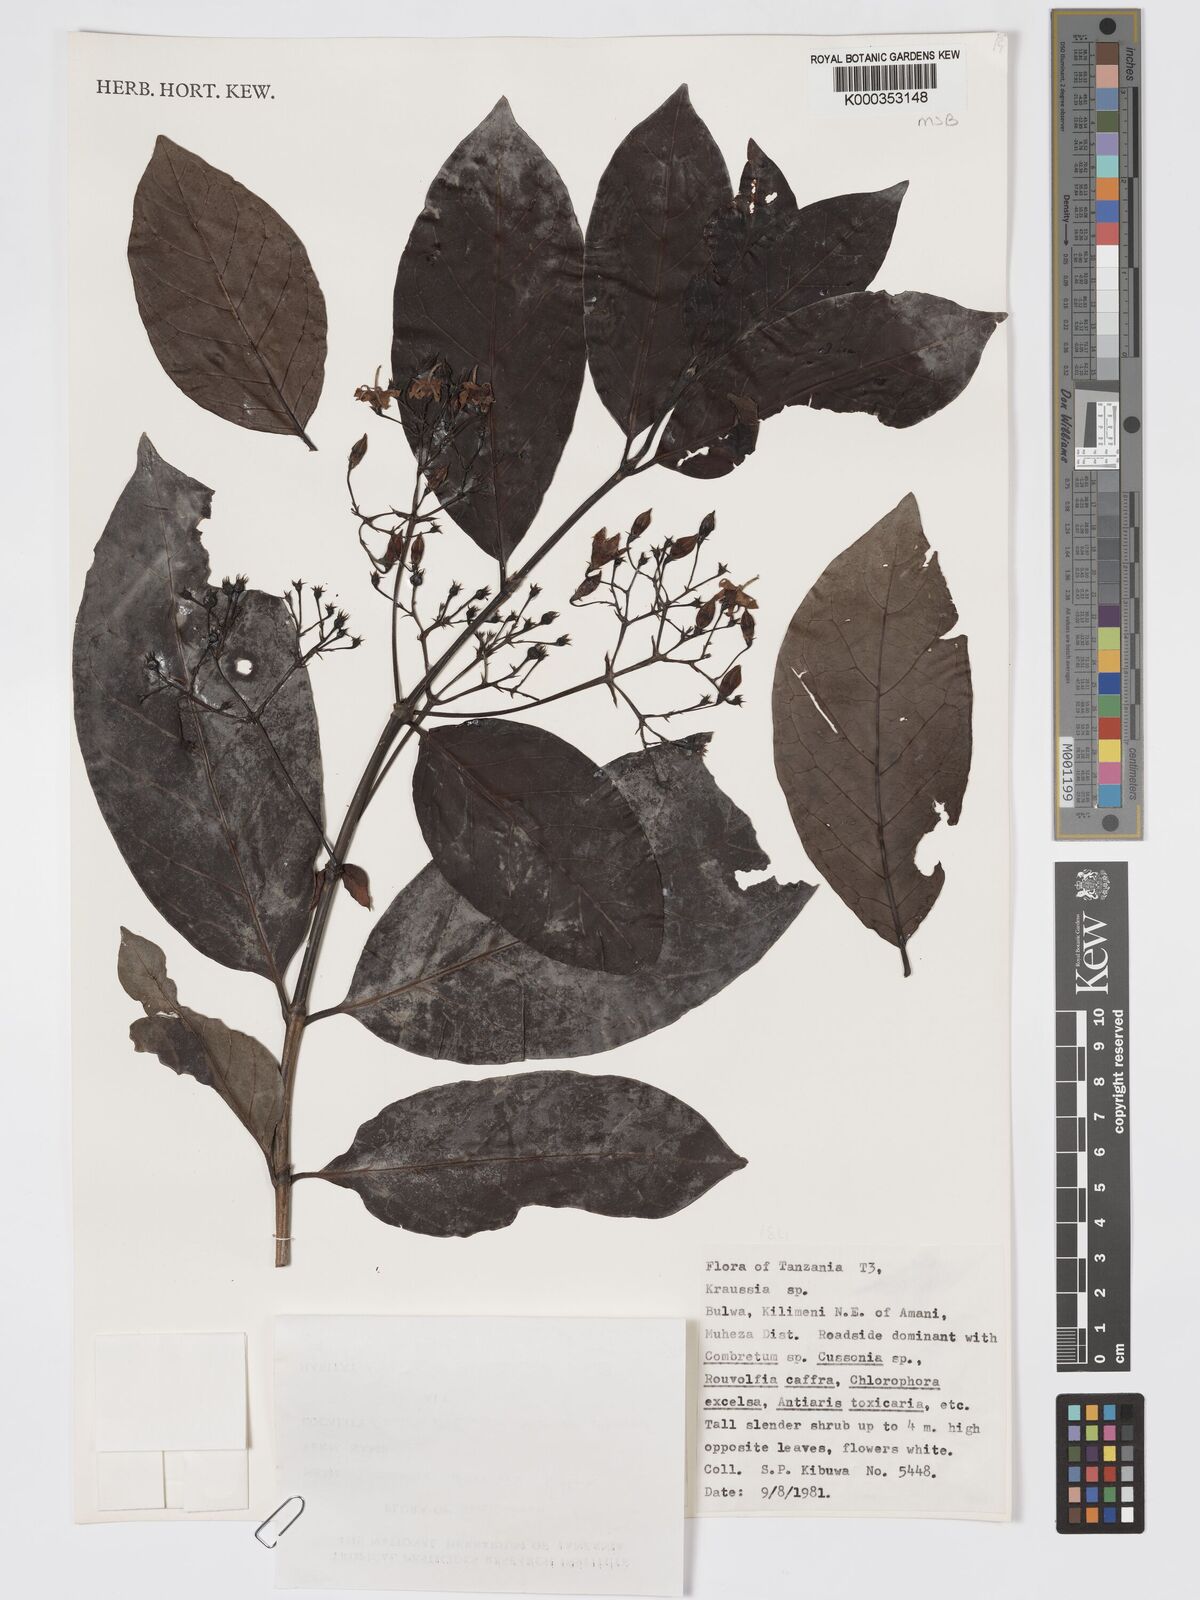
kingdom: Plantae
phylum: Tracheophyta
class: Magnoliopsida
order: Gentianales
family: Rubiaceae
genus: Kraussia
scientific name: Kraussia speciosa
